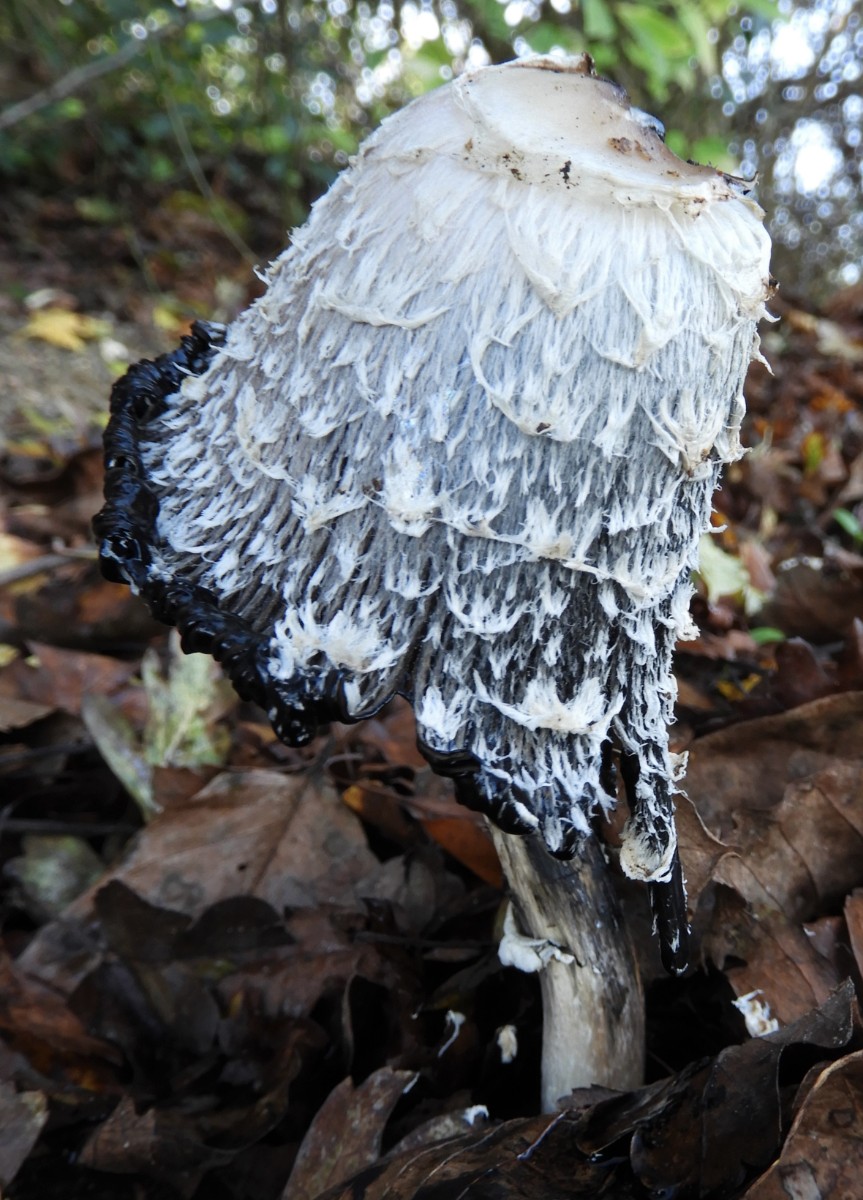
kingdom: Fungi
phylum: Basidiomycota
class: Agaricomycetes
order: Agaricales
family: Agaricaceae
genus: Coprinus
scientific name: Coprinus comatus
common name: stor parykhat
